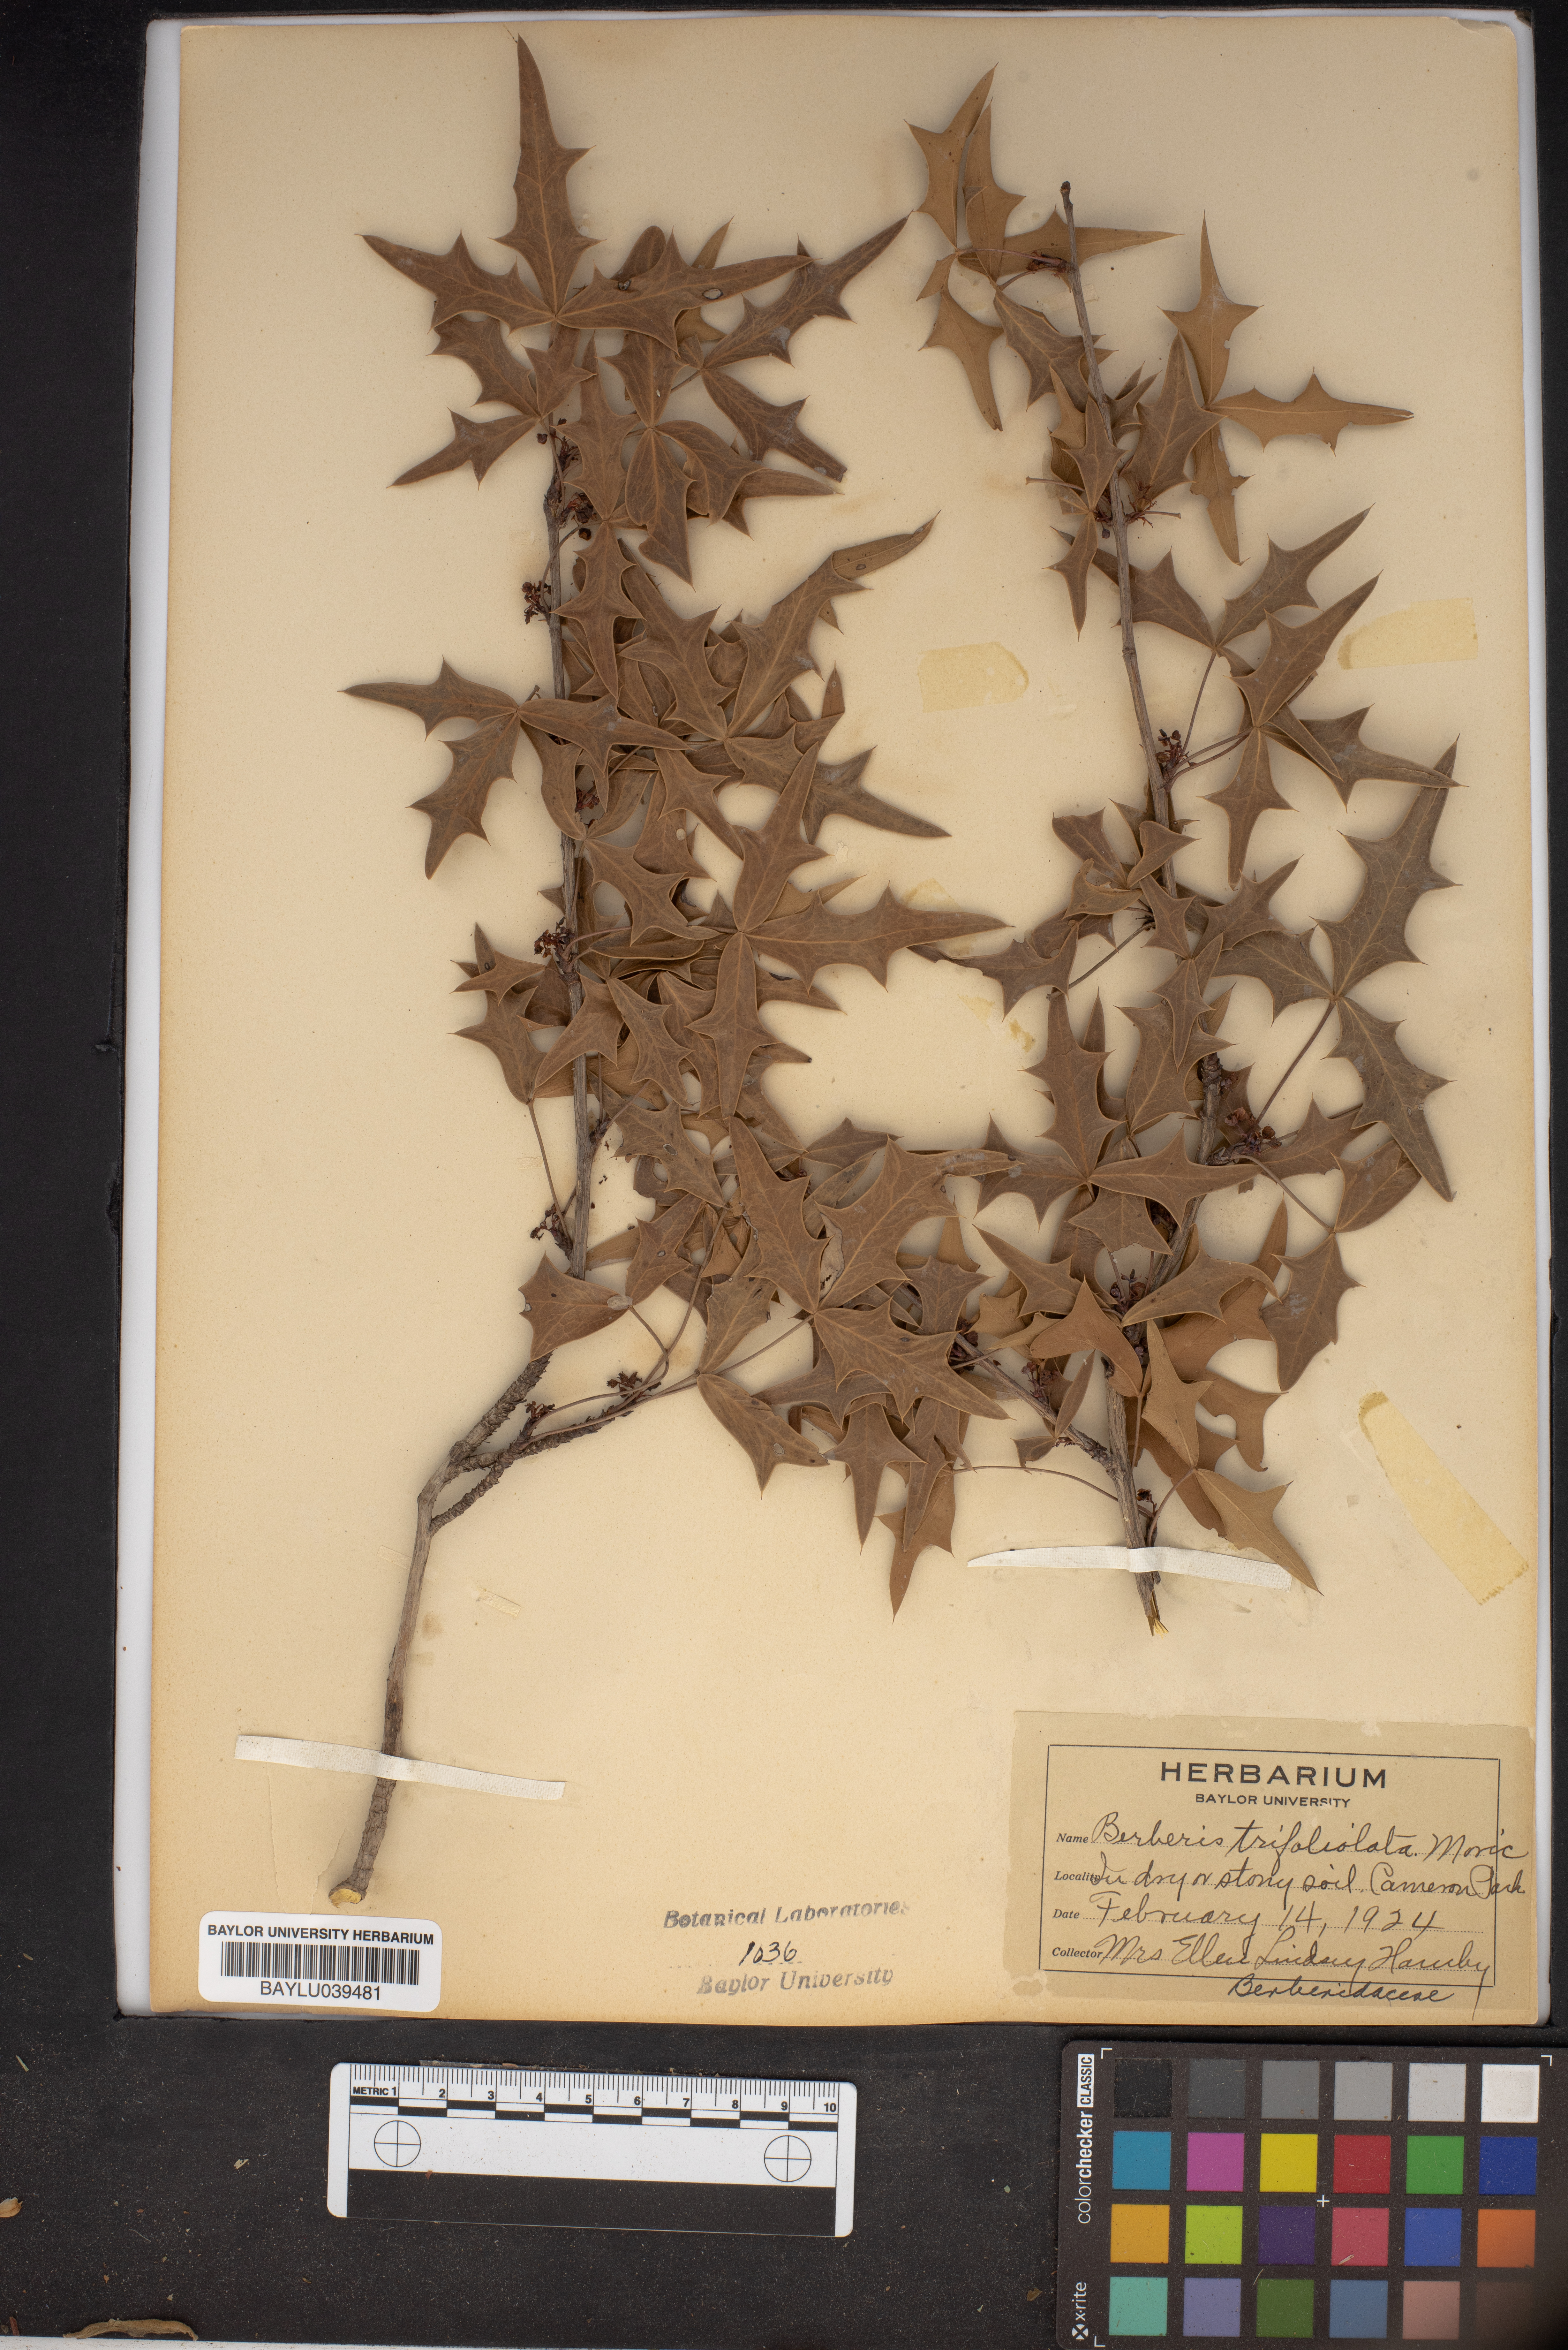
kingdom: Plantae
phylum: Tracheophyta
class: Magnoliopsida
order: Ranunculales
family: Berberidaceae
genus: Alloberberis
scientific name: Alloberberis trifoliolata
